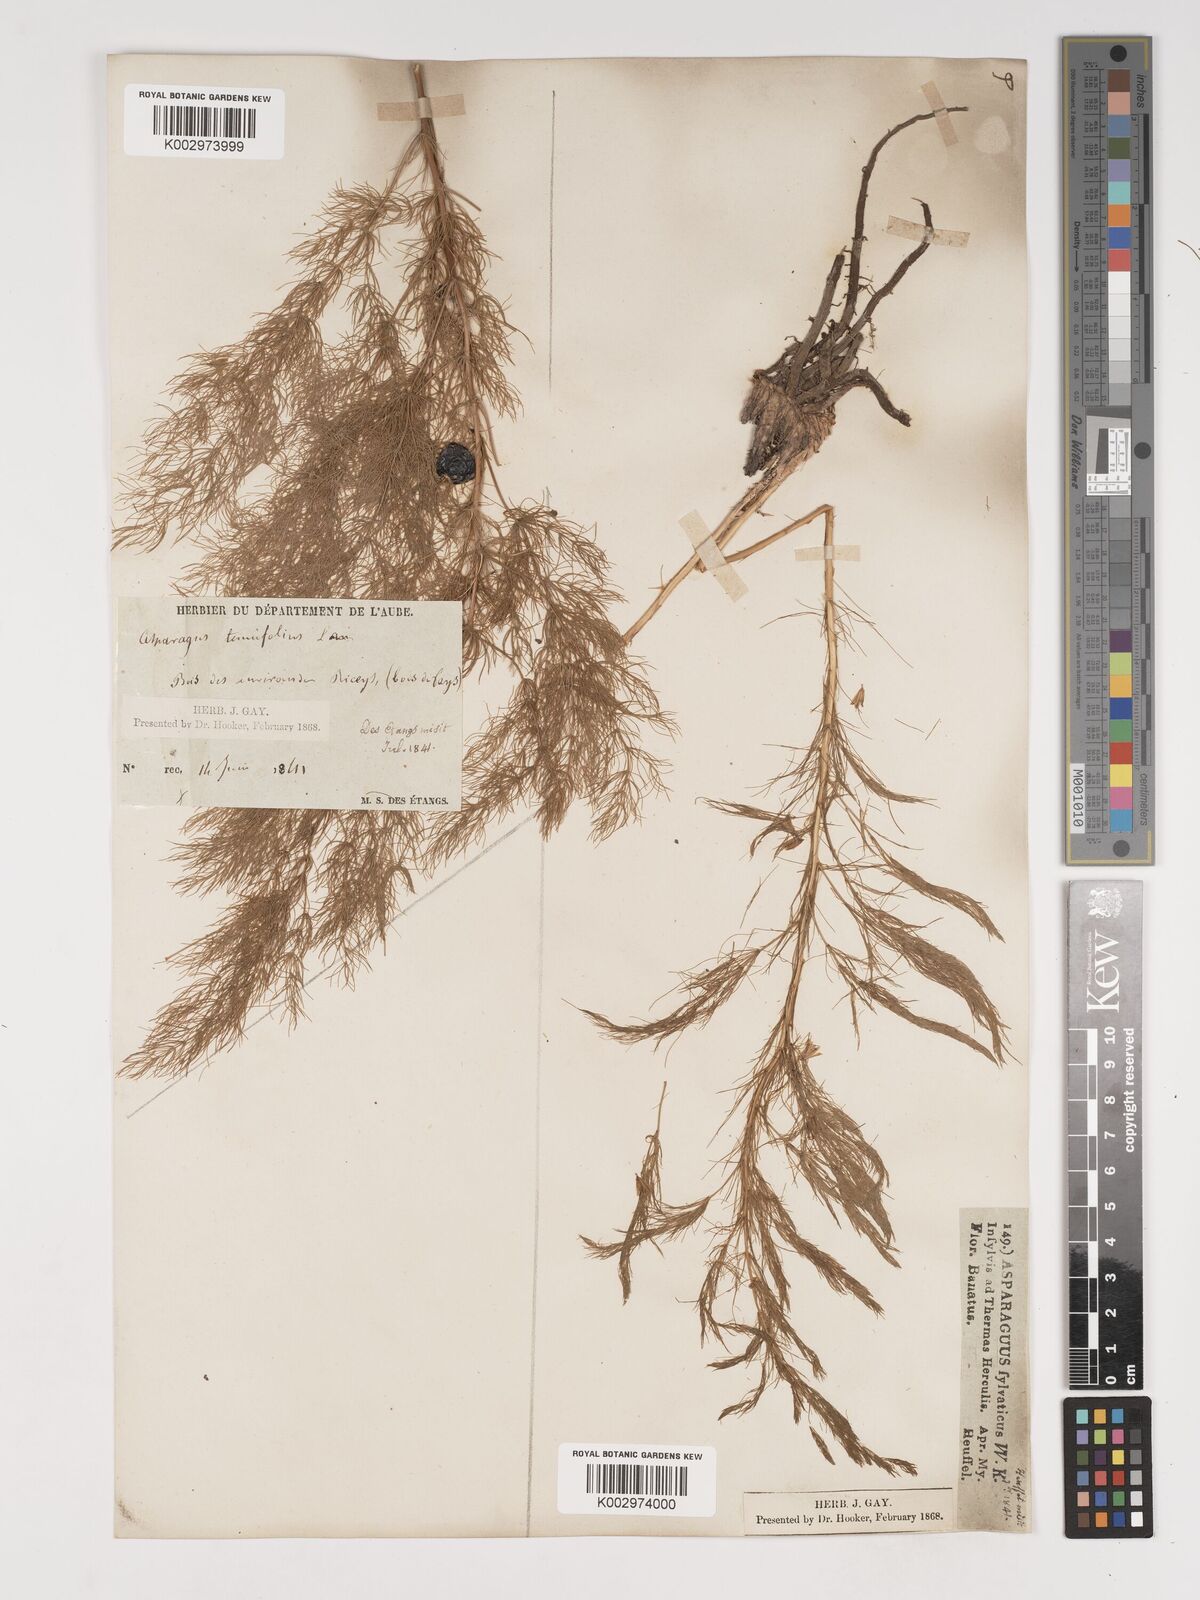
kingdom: Plantae
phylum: Tracheophyta
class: Liliopsida
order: Asparagales
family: Asparagaceae
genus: Asparagus
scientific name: Asparagus officinalis
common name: Garden asparagus
